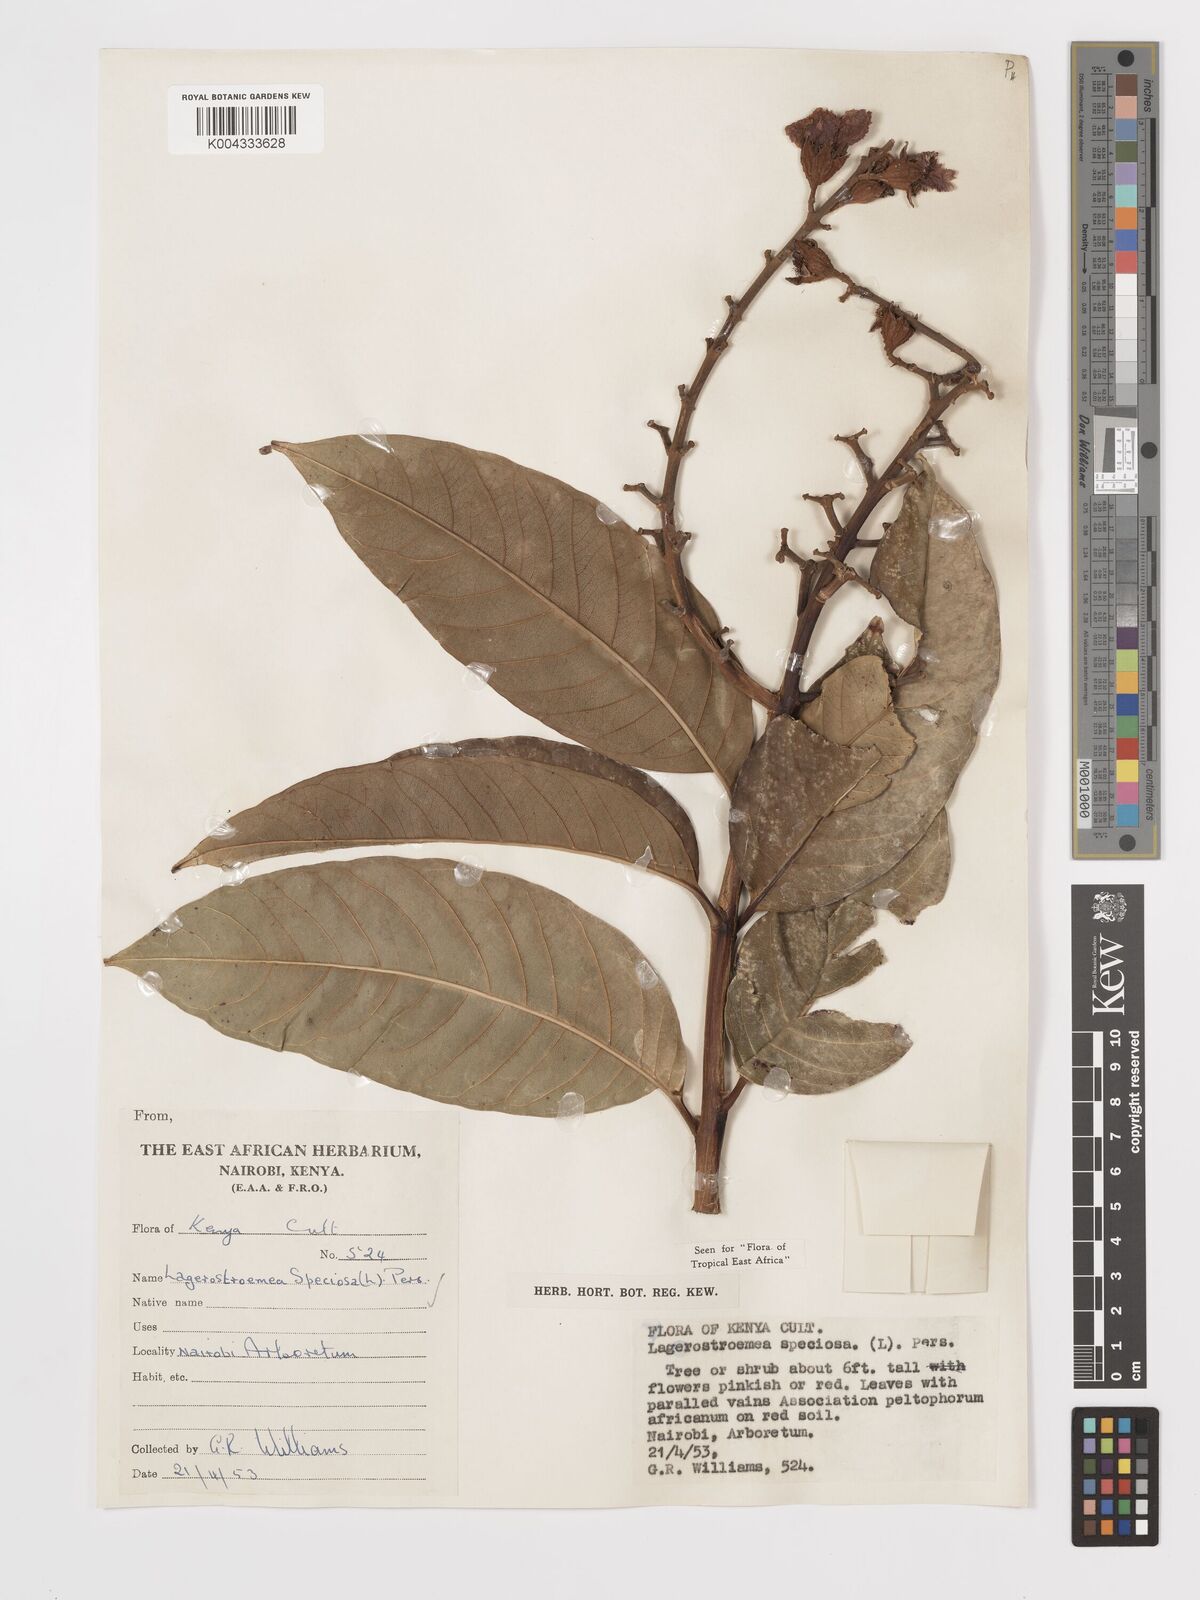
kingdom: Plantae
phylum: Tracheophyta
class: Magnoliopsida
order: Myrtales
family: Lythraceae
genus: Lagerstroemia
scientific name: Lagerstroemia speciosa
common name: Queen's crape-myrtle
